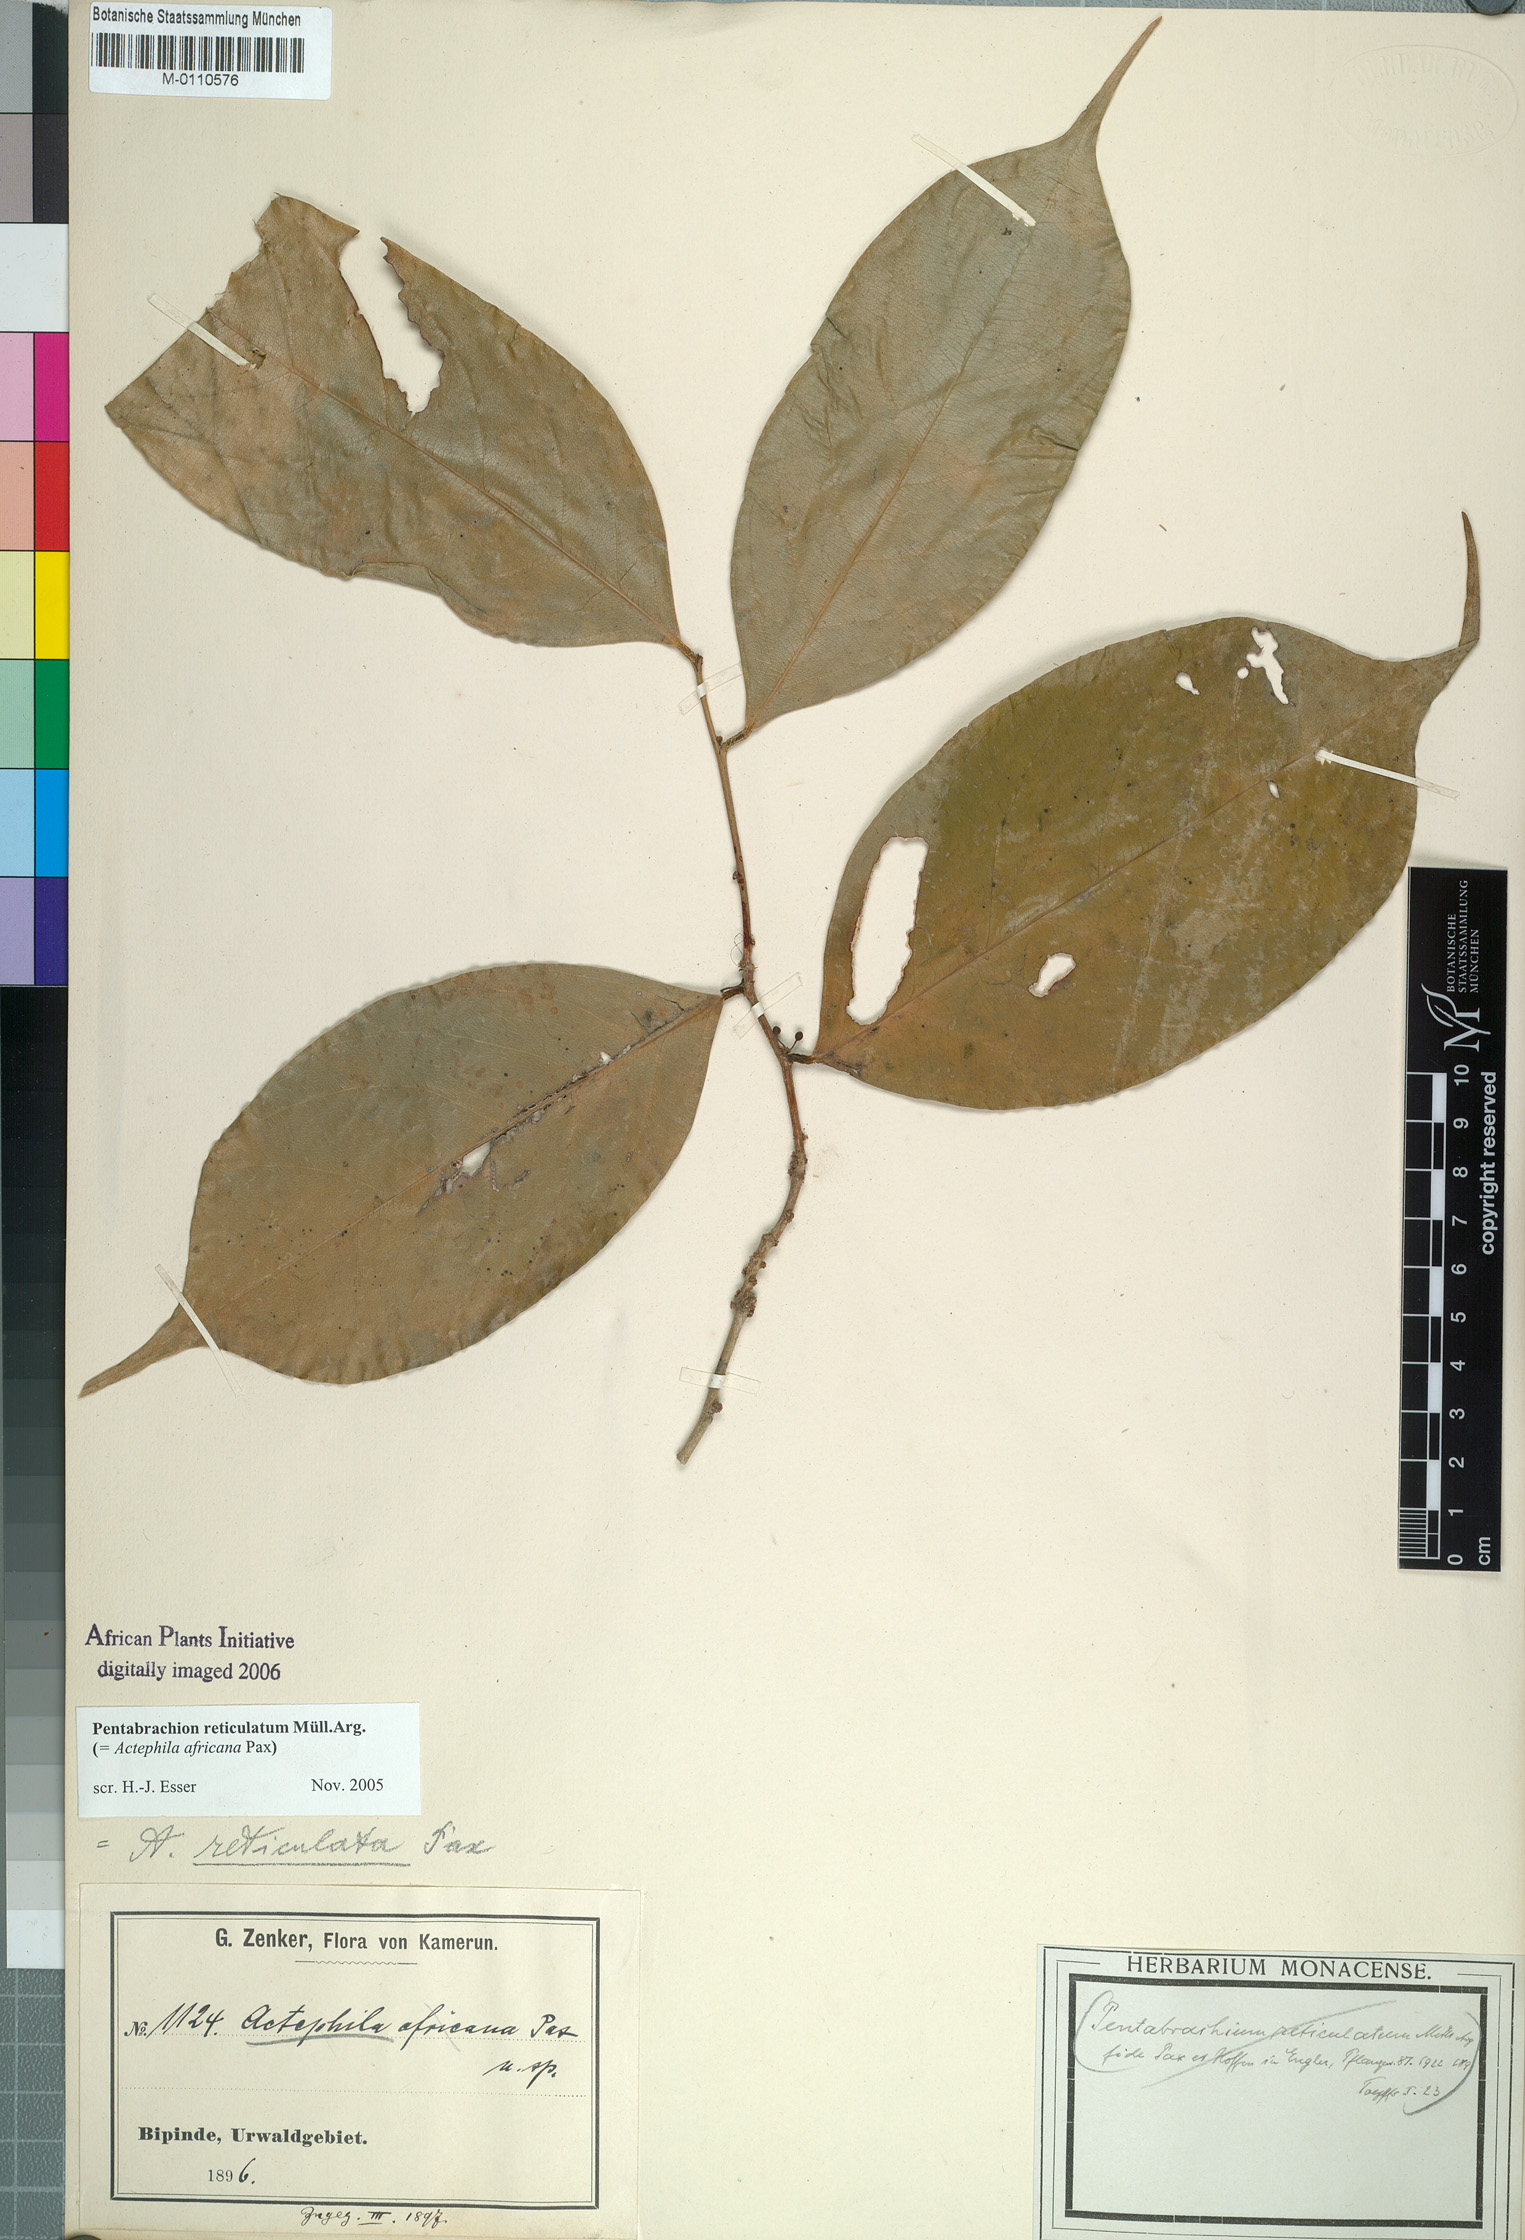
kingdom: Plantae
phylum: Tracheophyta
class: Magnoliopsida
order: Malpighiales
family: Phyllanthaceae
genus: Pentabrachion
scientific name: Pentabrachion reticulatum
